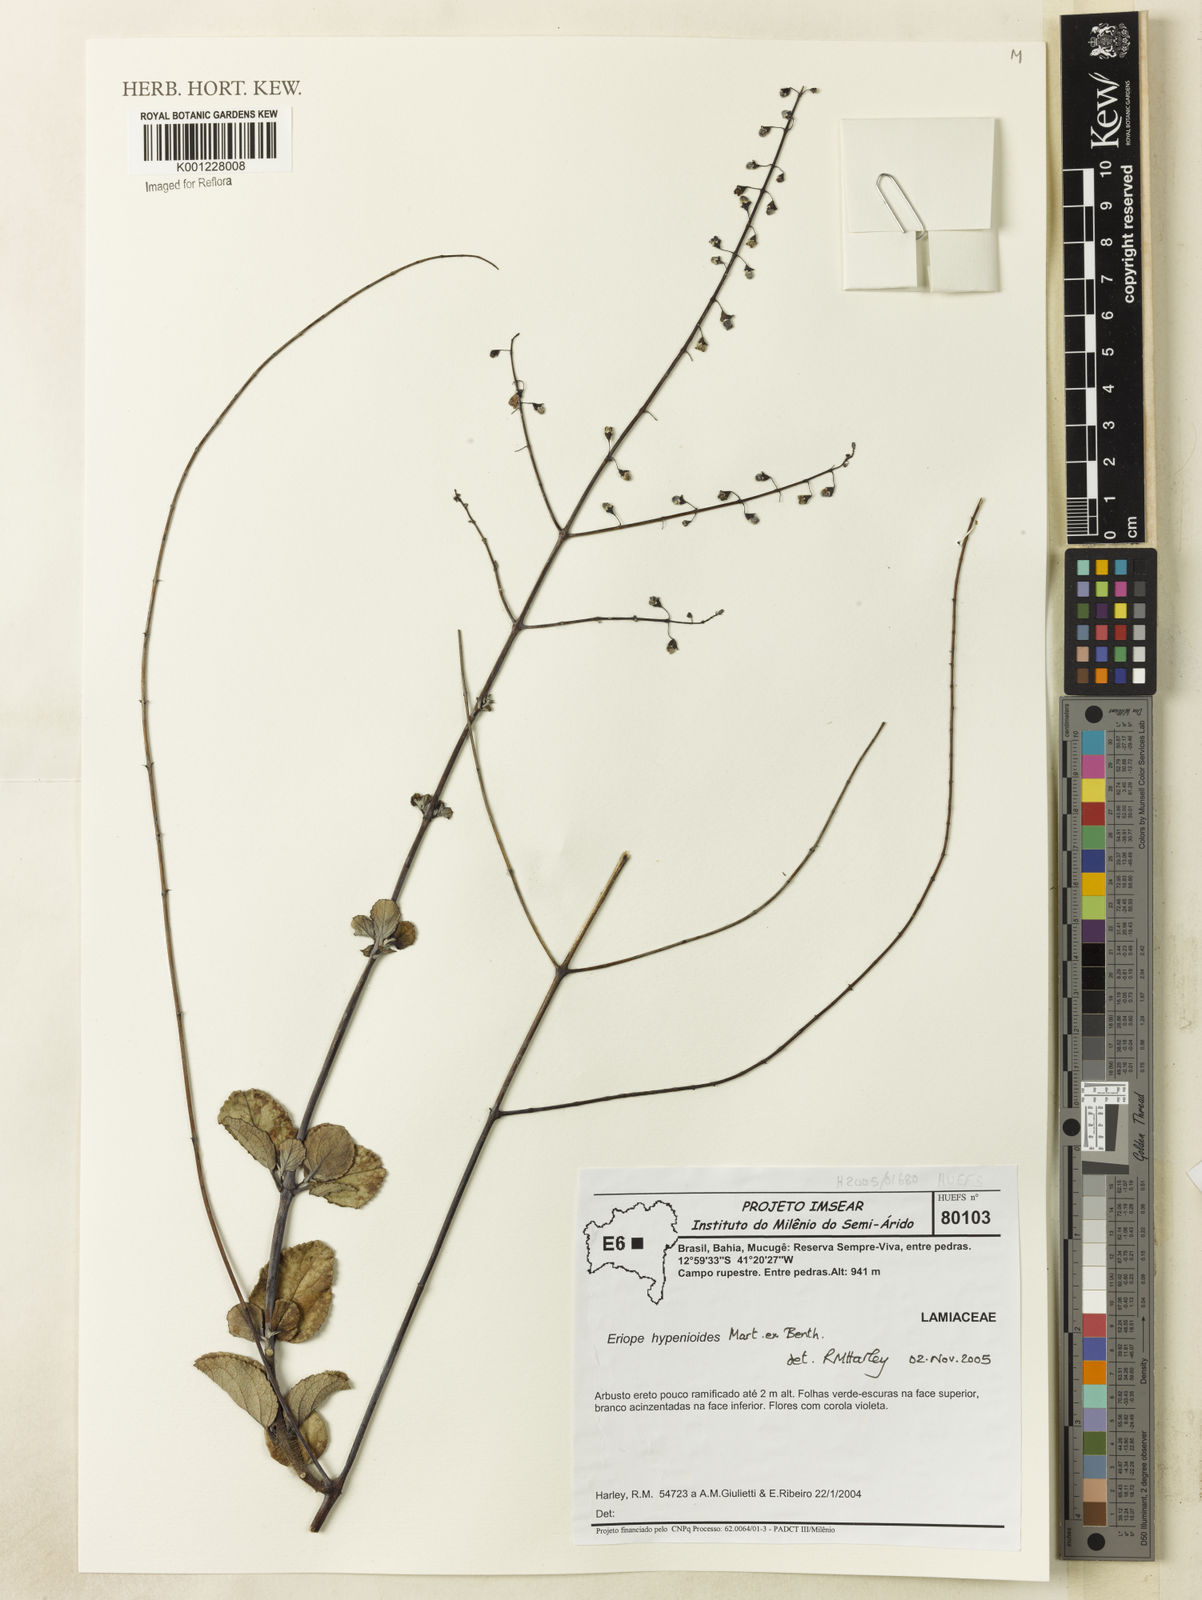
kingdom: Plantae
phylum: Tracheophyta
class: Magnoliopsida
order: Lamiales
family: Lamiaceae
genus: Eriope
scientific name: Eriope hypenioides
